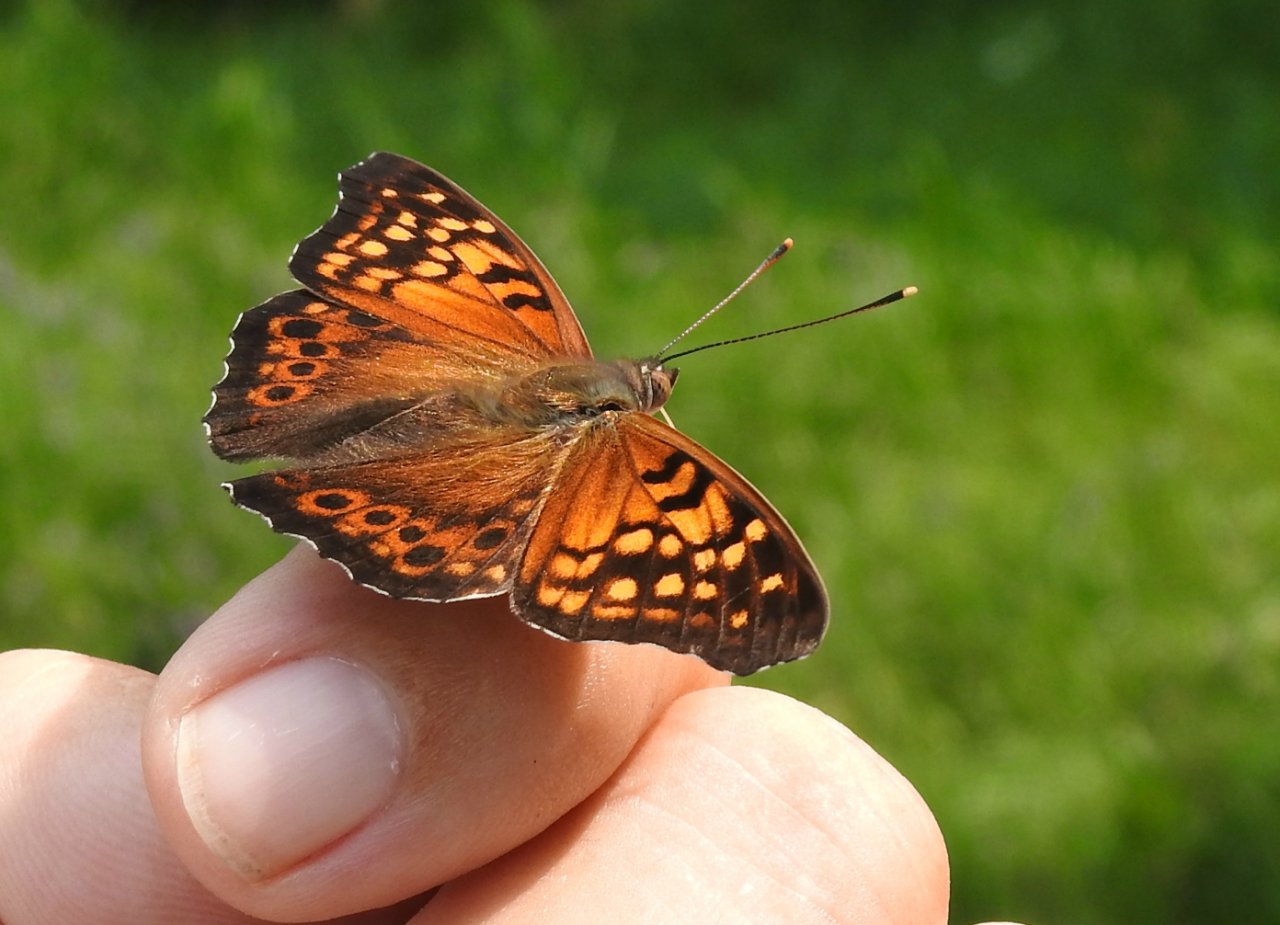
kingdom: Animalia
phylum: Arthropoda
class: Insecta
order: Lepidoptera
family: Nymphalidae
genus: Asterocampa
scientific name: Asterocampa clyton
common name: Tawny Emperor
